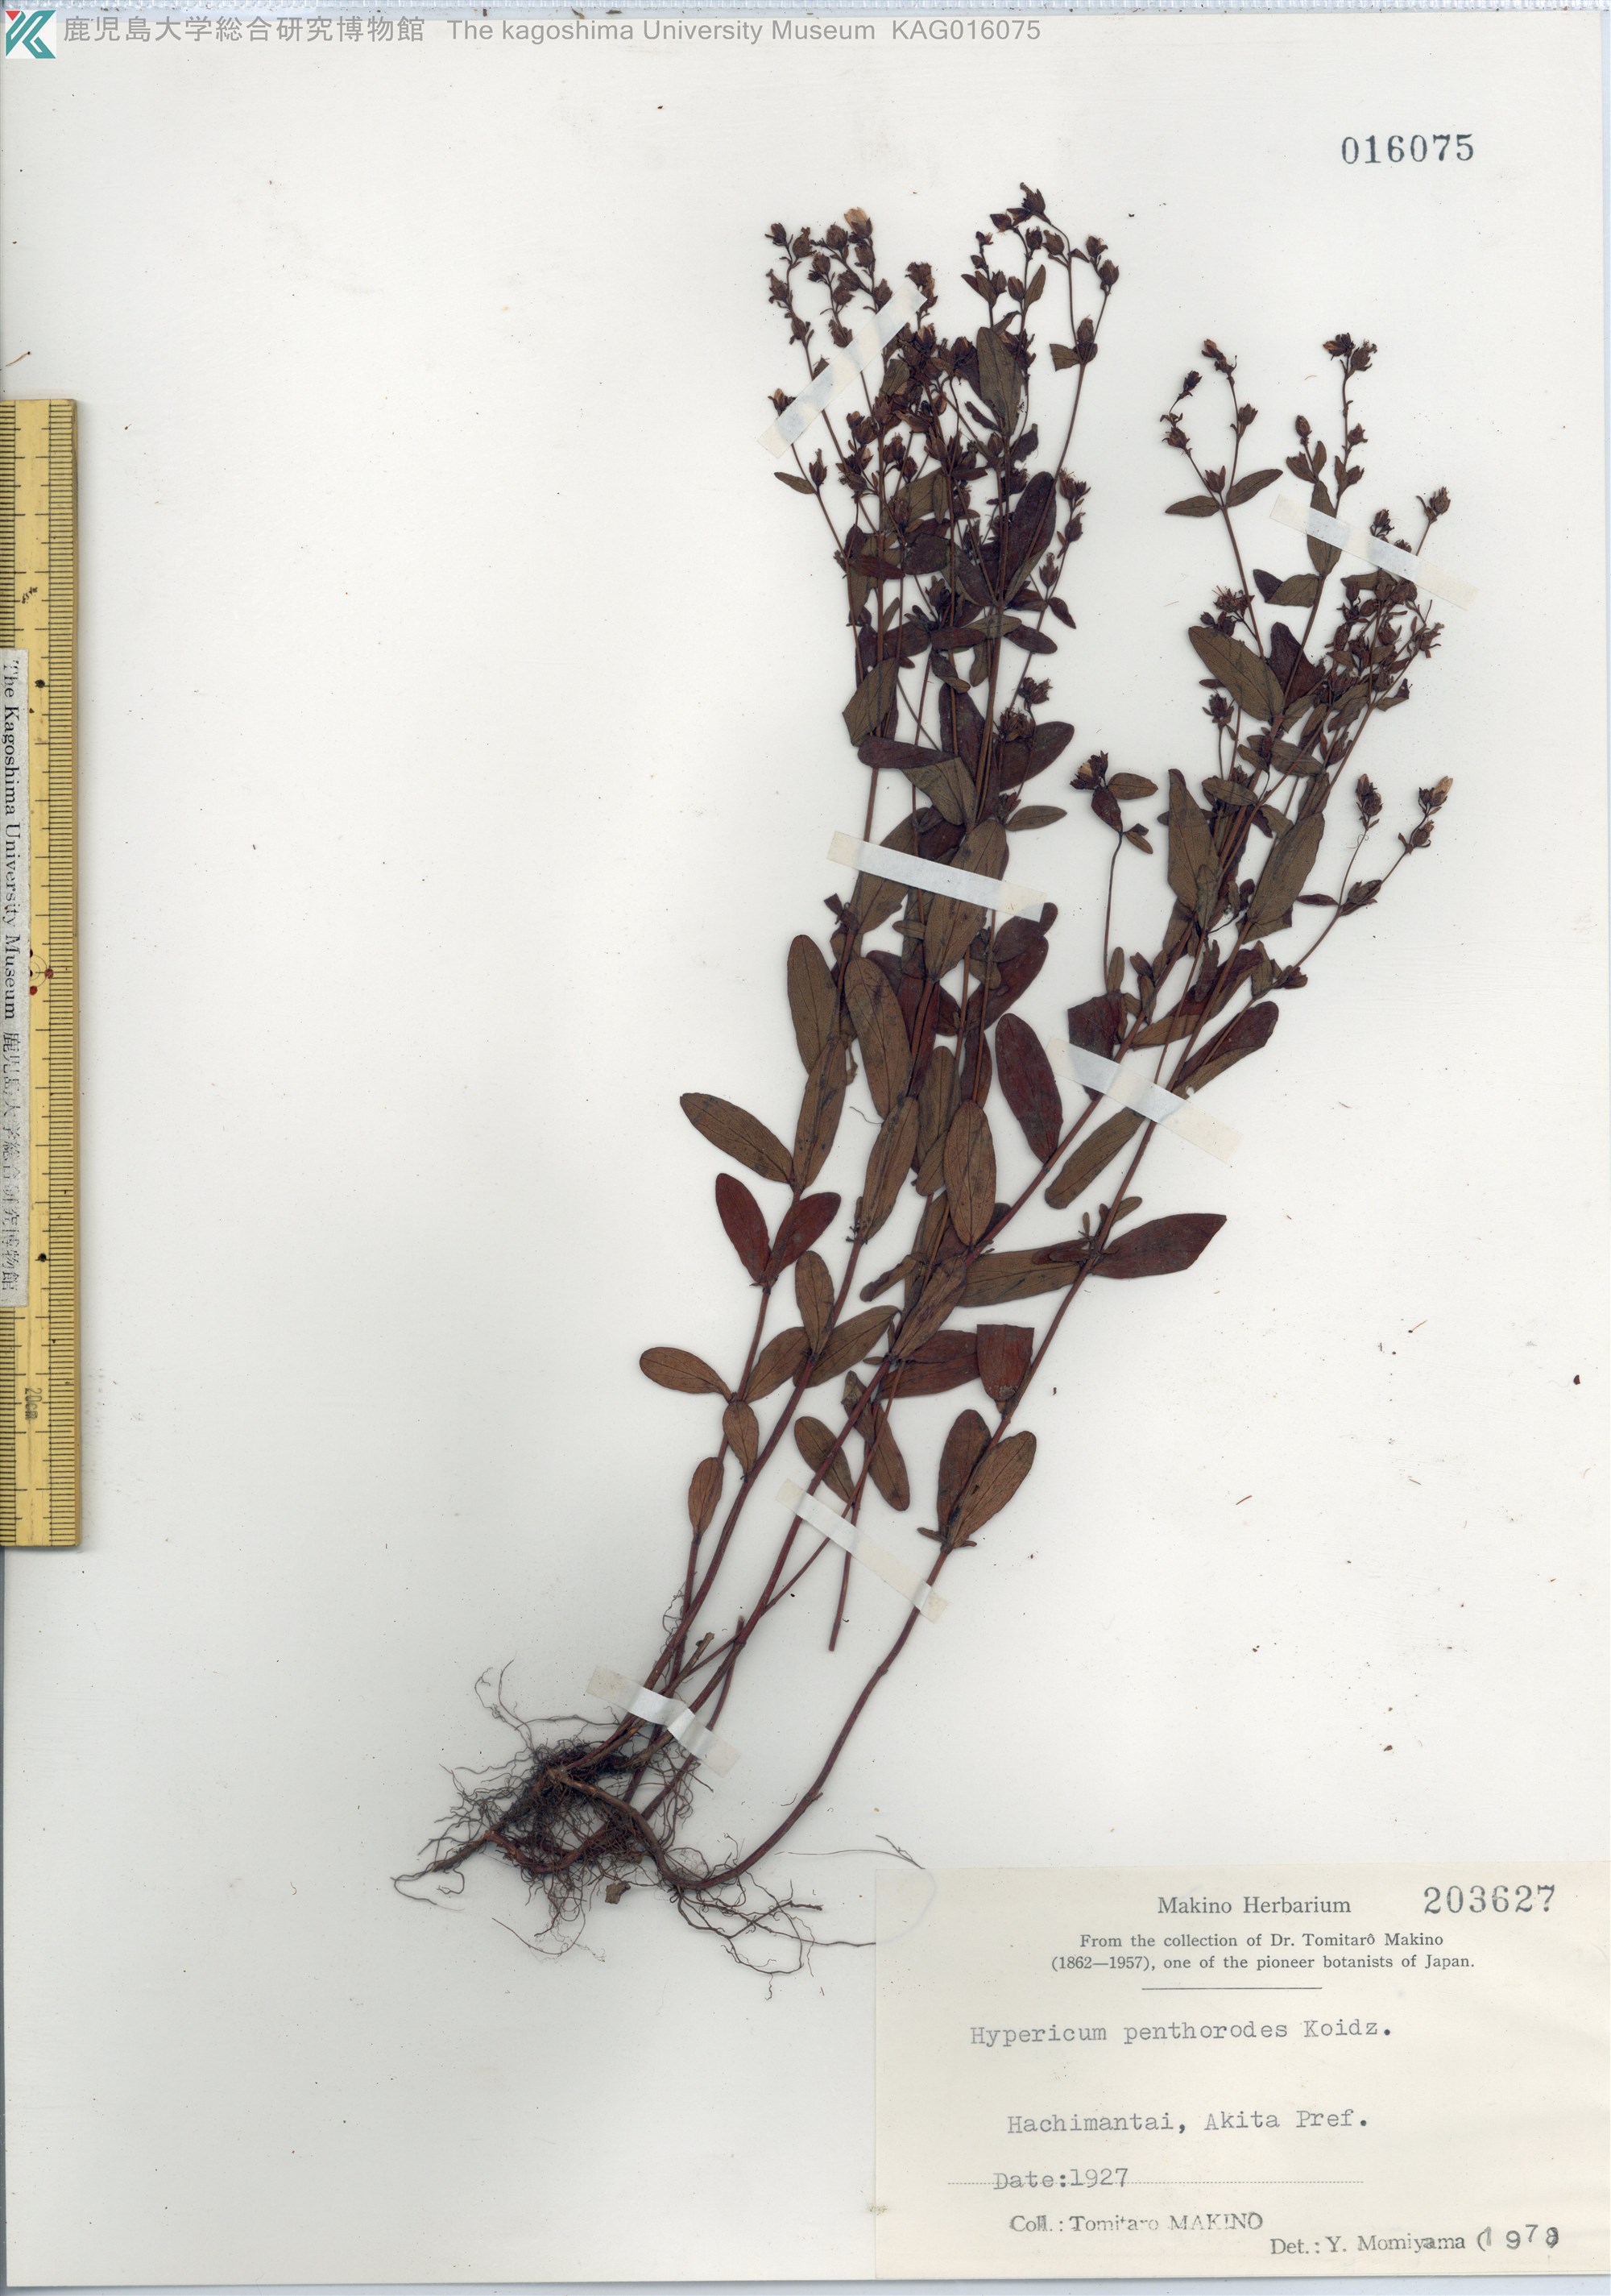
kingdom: Plantae
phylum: Tracheophyta
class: Magnoliopsida
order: Malpighiales
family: Hypericaceae
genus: Hypericum
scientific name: Hypericum erectum
